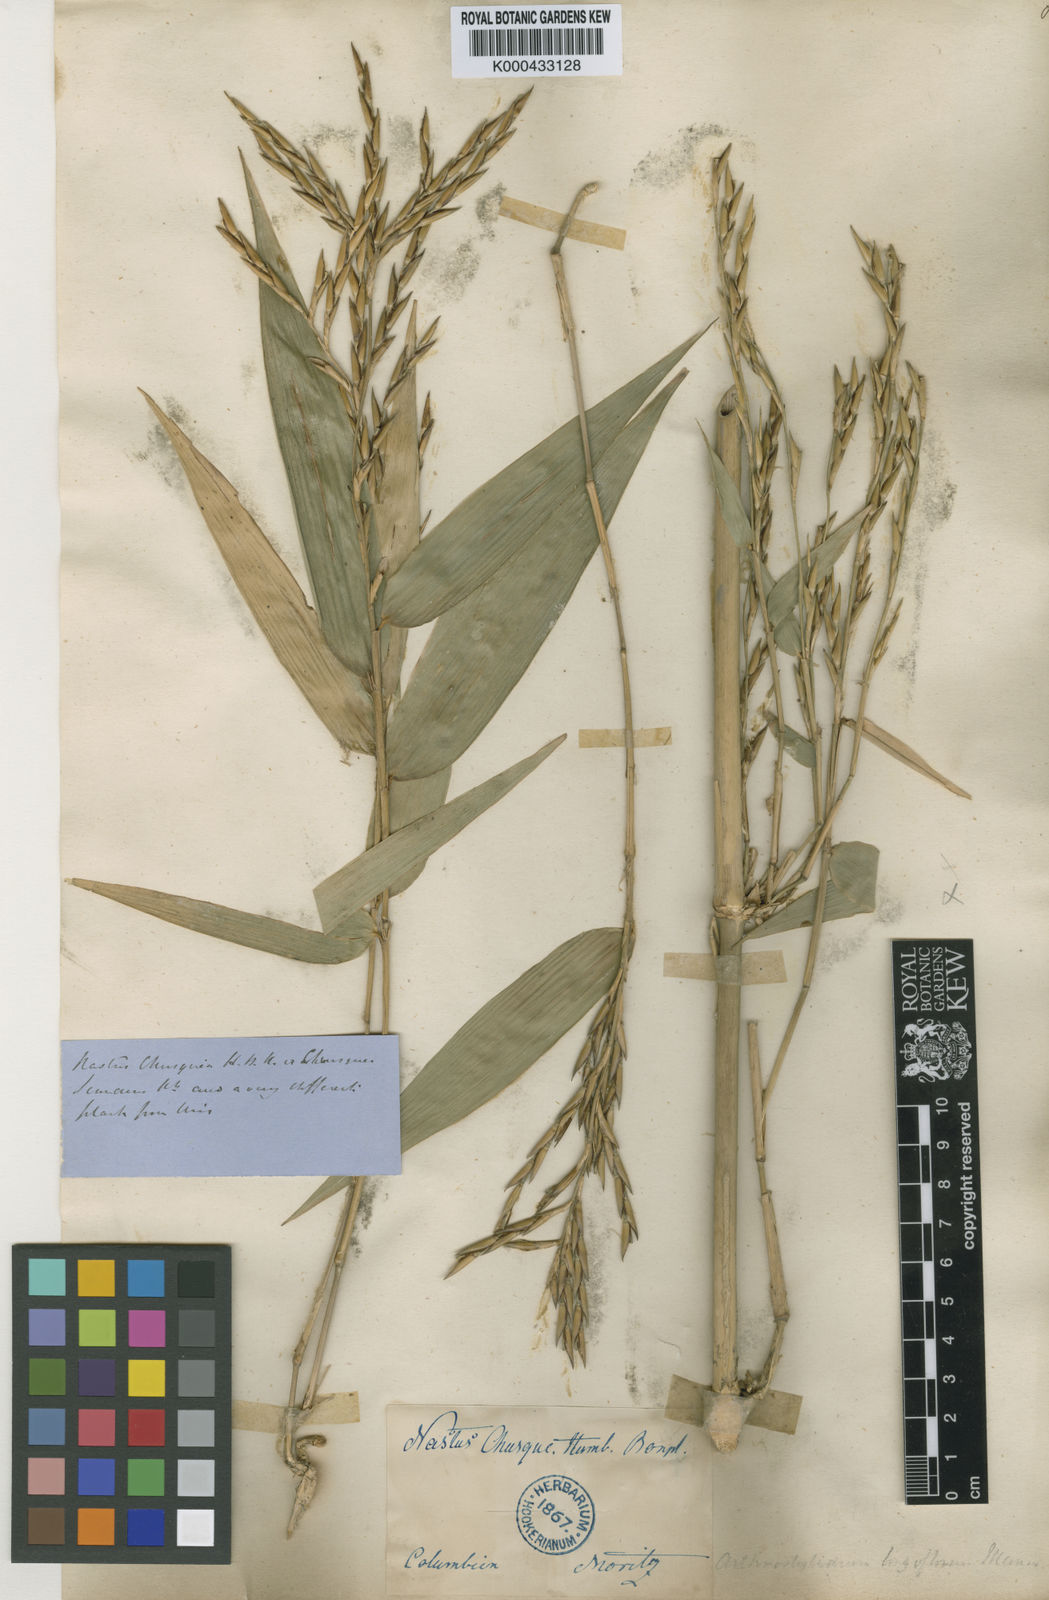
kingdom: Plantae
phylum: Tracheophyta
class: Liliopsida
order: Poales
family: Poaceae
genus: Arthrostylidium
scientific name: Arthrostylidium longiflorum
